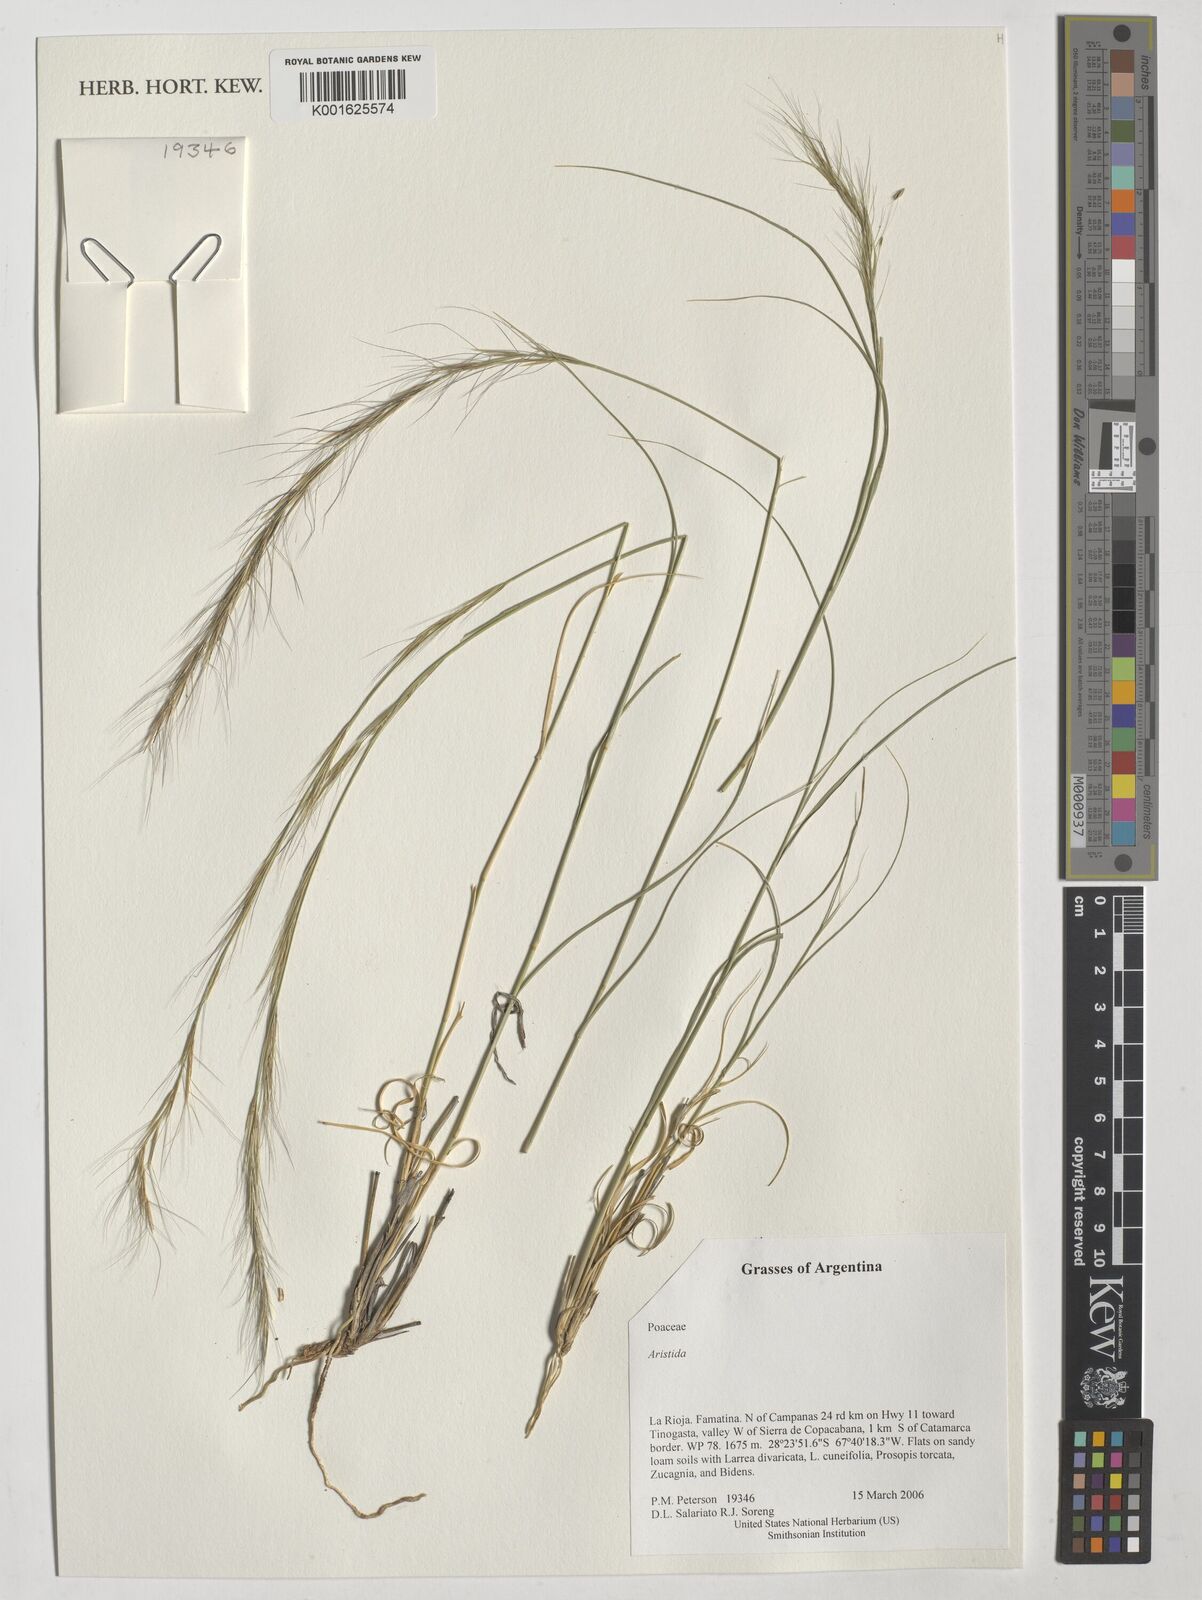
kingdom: Plantae
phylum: Tracheophyta
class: Liliopsida
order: Poales
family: Poaceae
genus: Aristida
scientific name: Aristida
